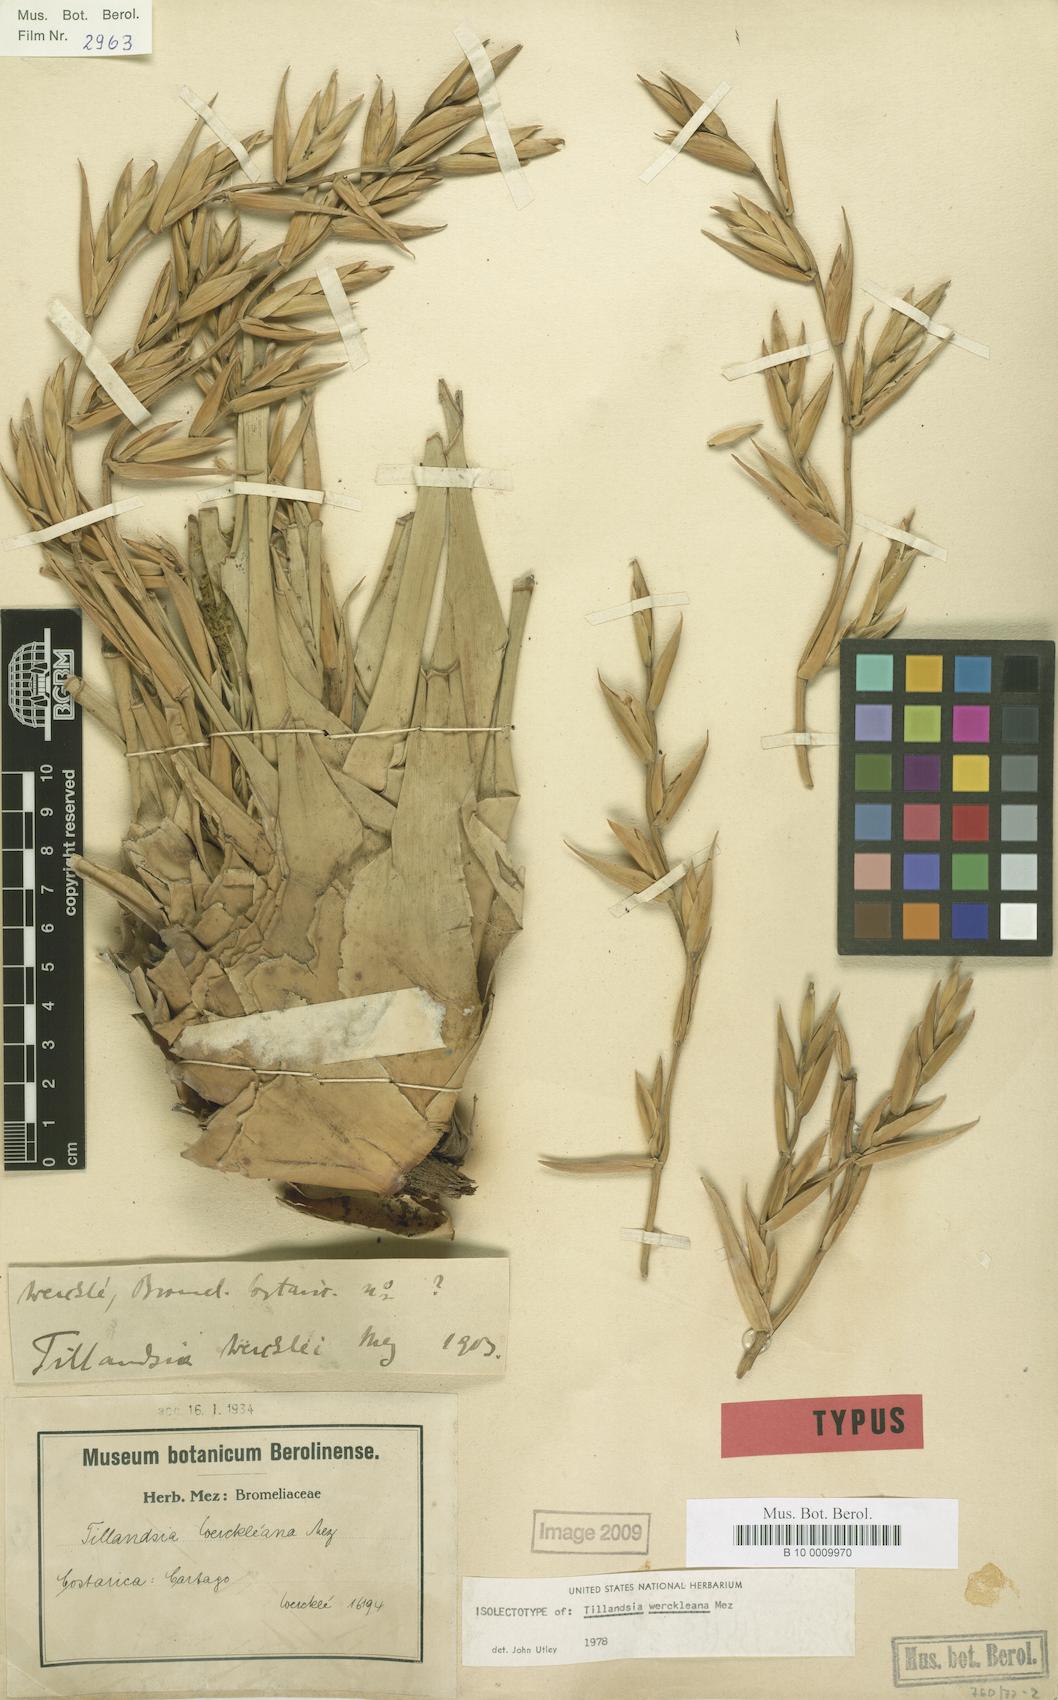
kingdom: Plantae
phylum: Tracheophyta
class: Liliopsida
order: Poales
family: Bromeliaceae
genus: Tillandsia
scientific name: Tillandsia excelsa
